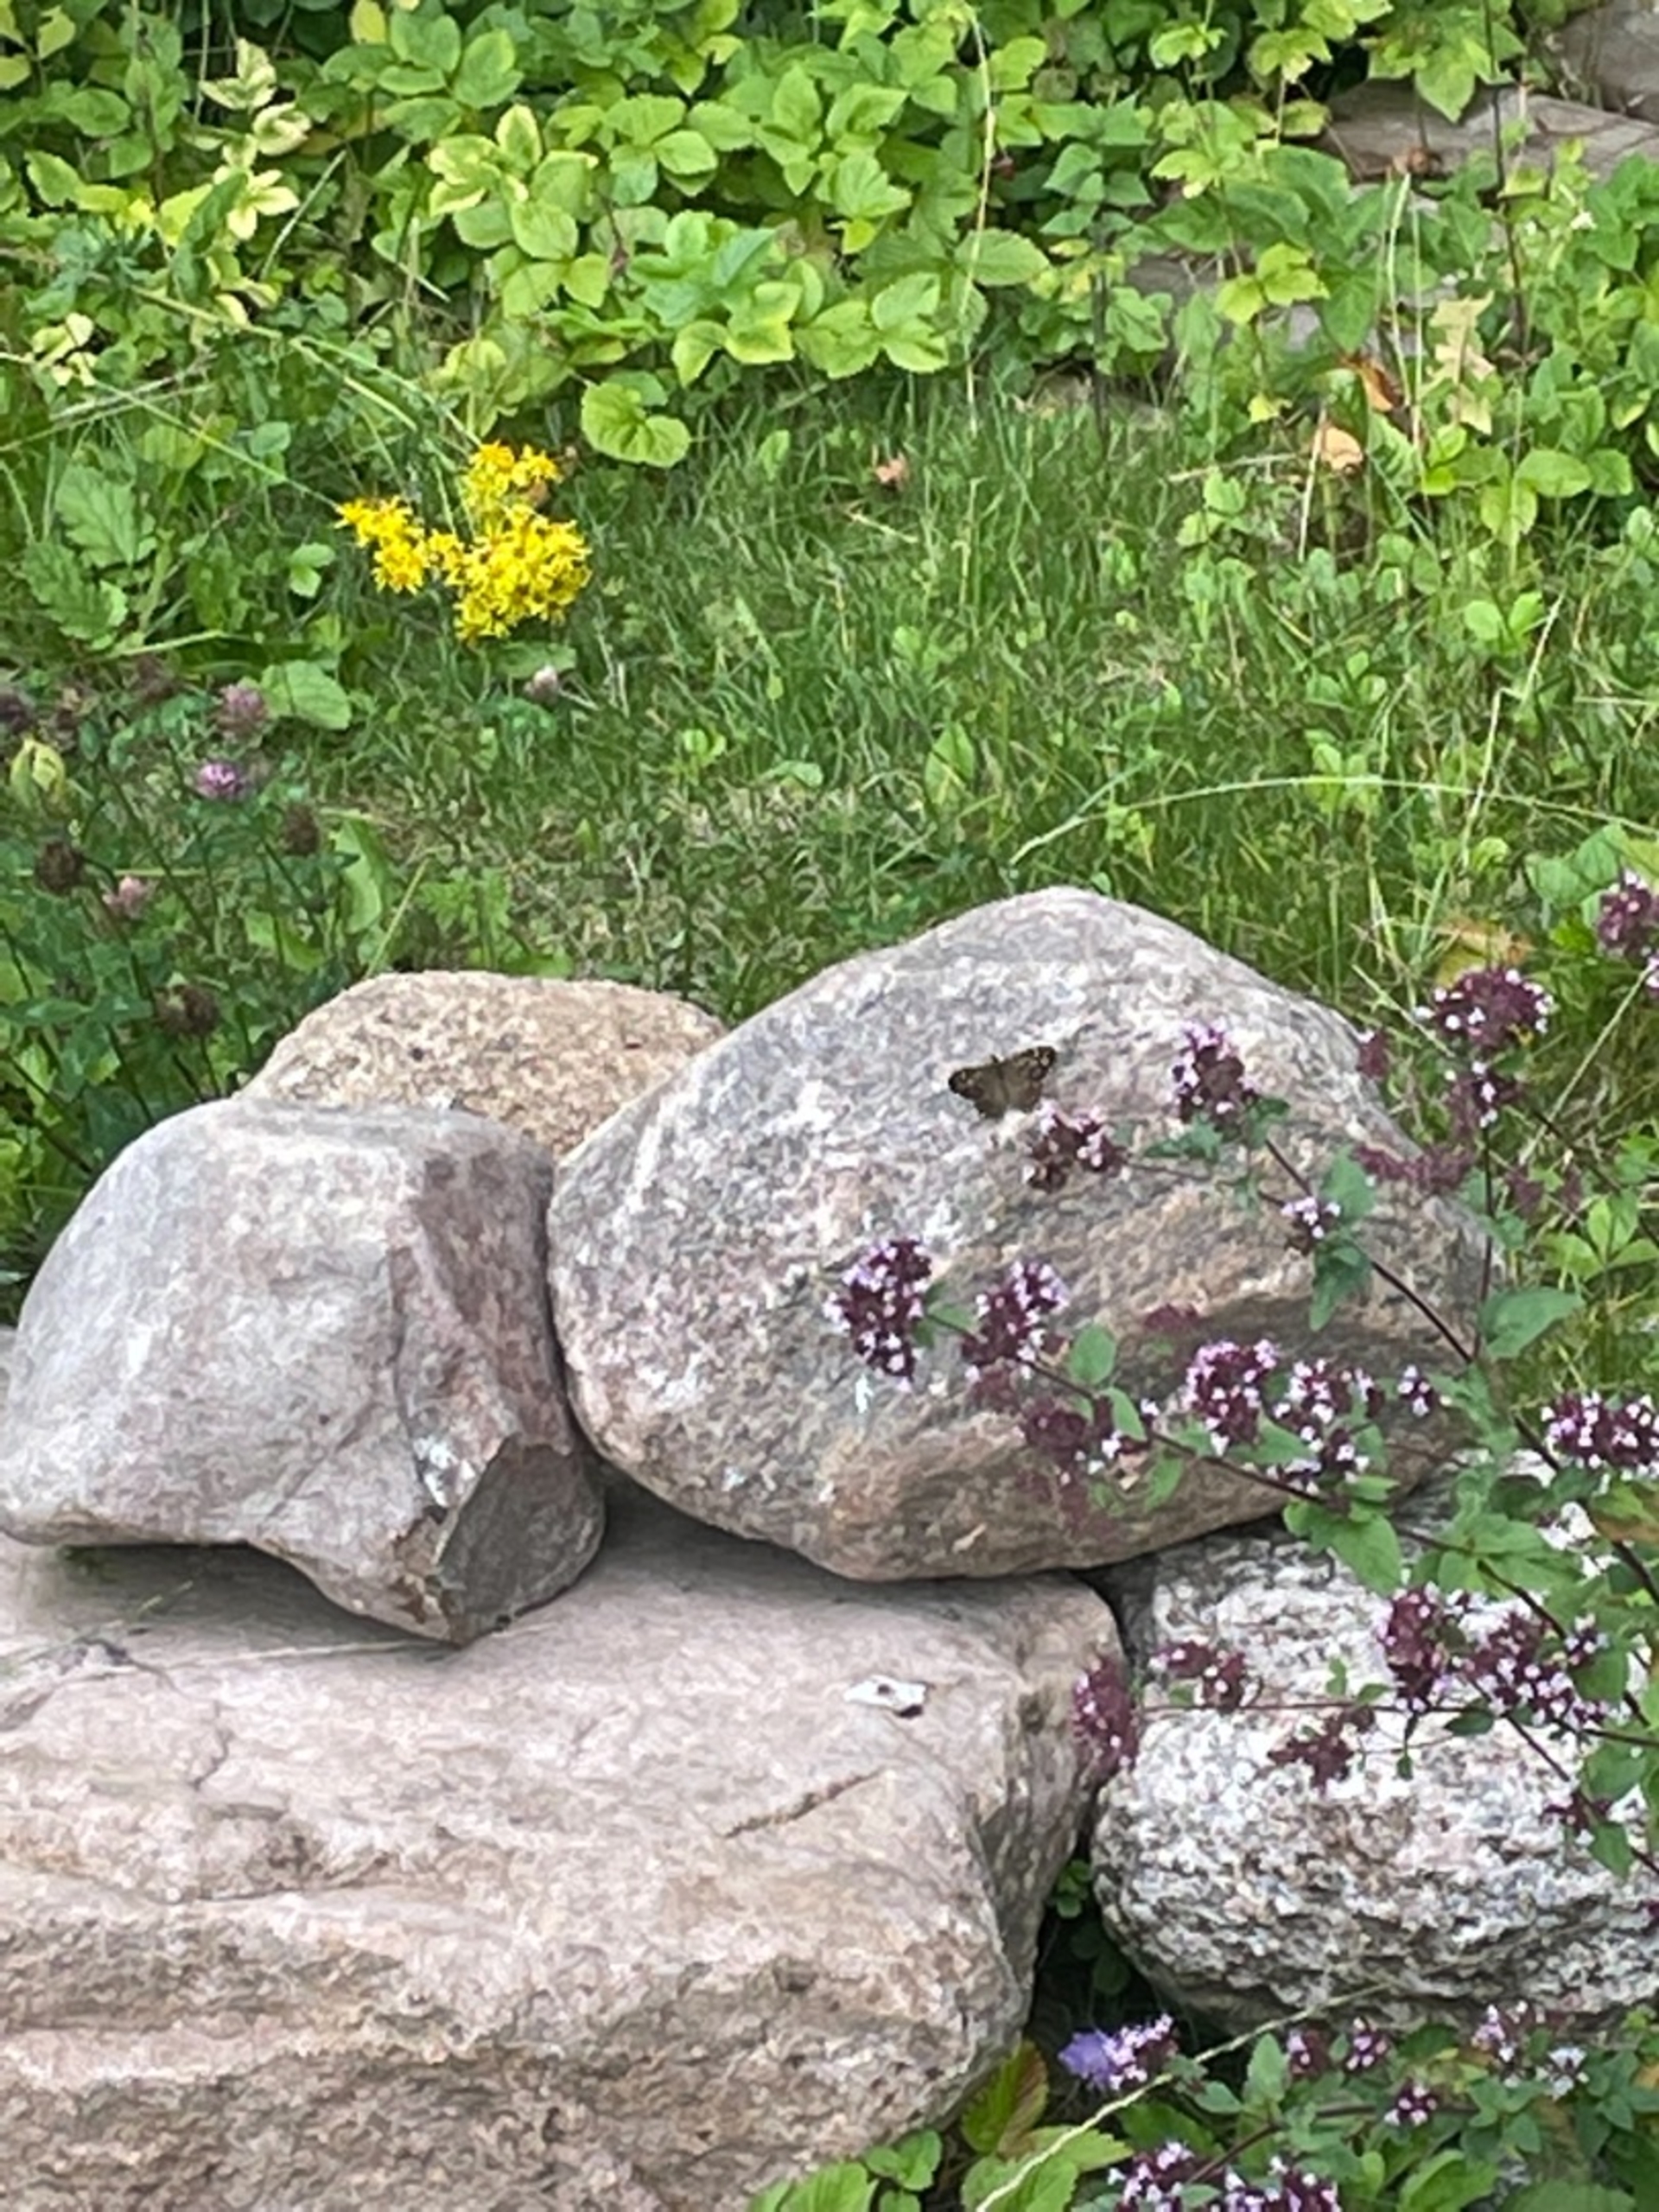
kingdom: Animalia
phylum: Arthropoda
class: Insecta
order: Lepidoptera
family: Nymphalidae
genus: Pararge
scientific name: Pararge aegeria
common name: Skovrandøje
